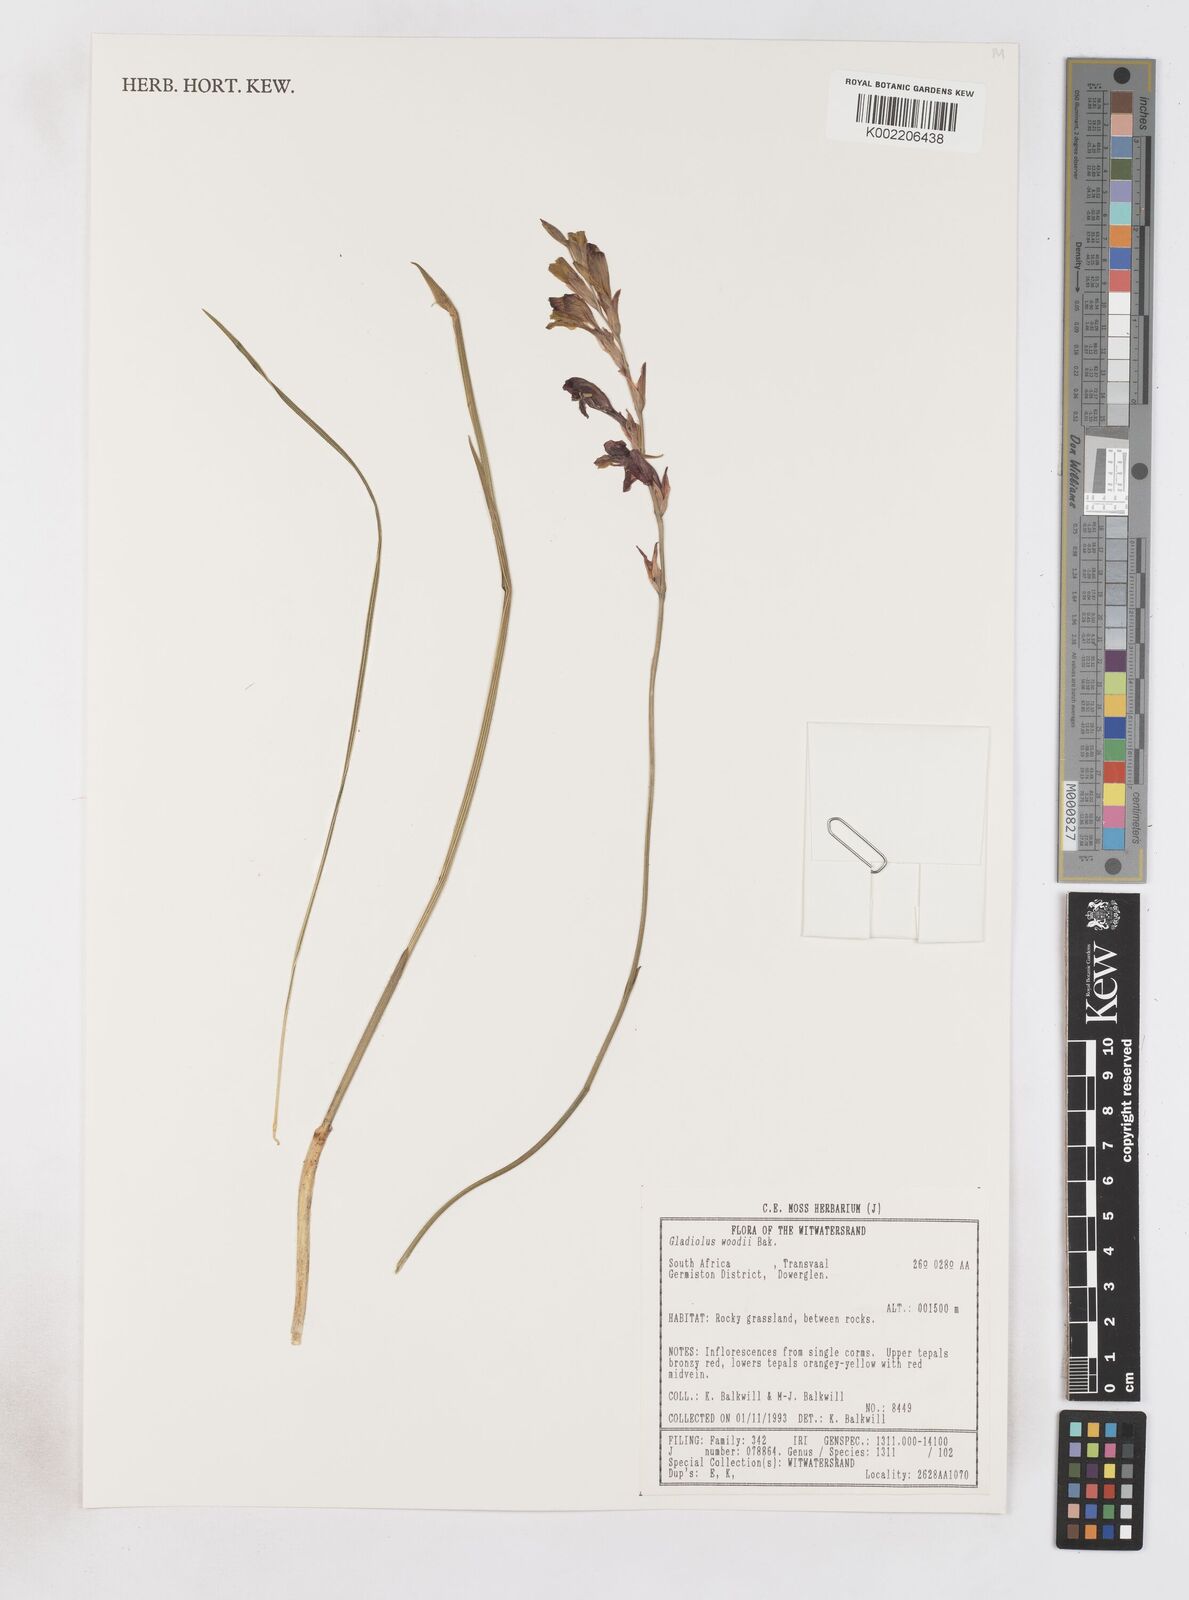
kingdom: Plantae
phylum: Tracheophyta
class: Liliopsida
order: Asparagales
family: Iridaceae
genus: Gladiolus
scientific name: Gladiolus woodii
